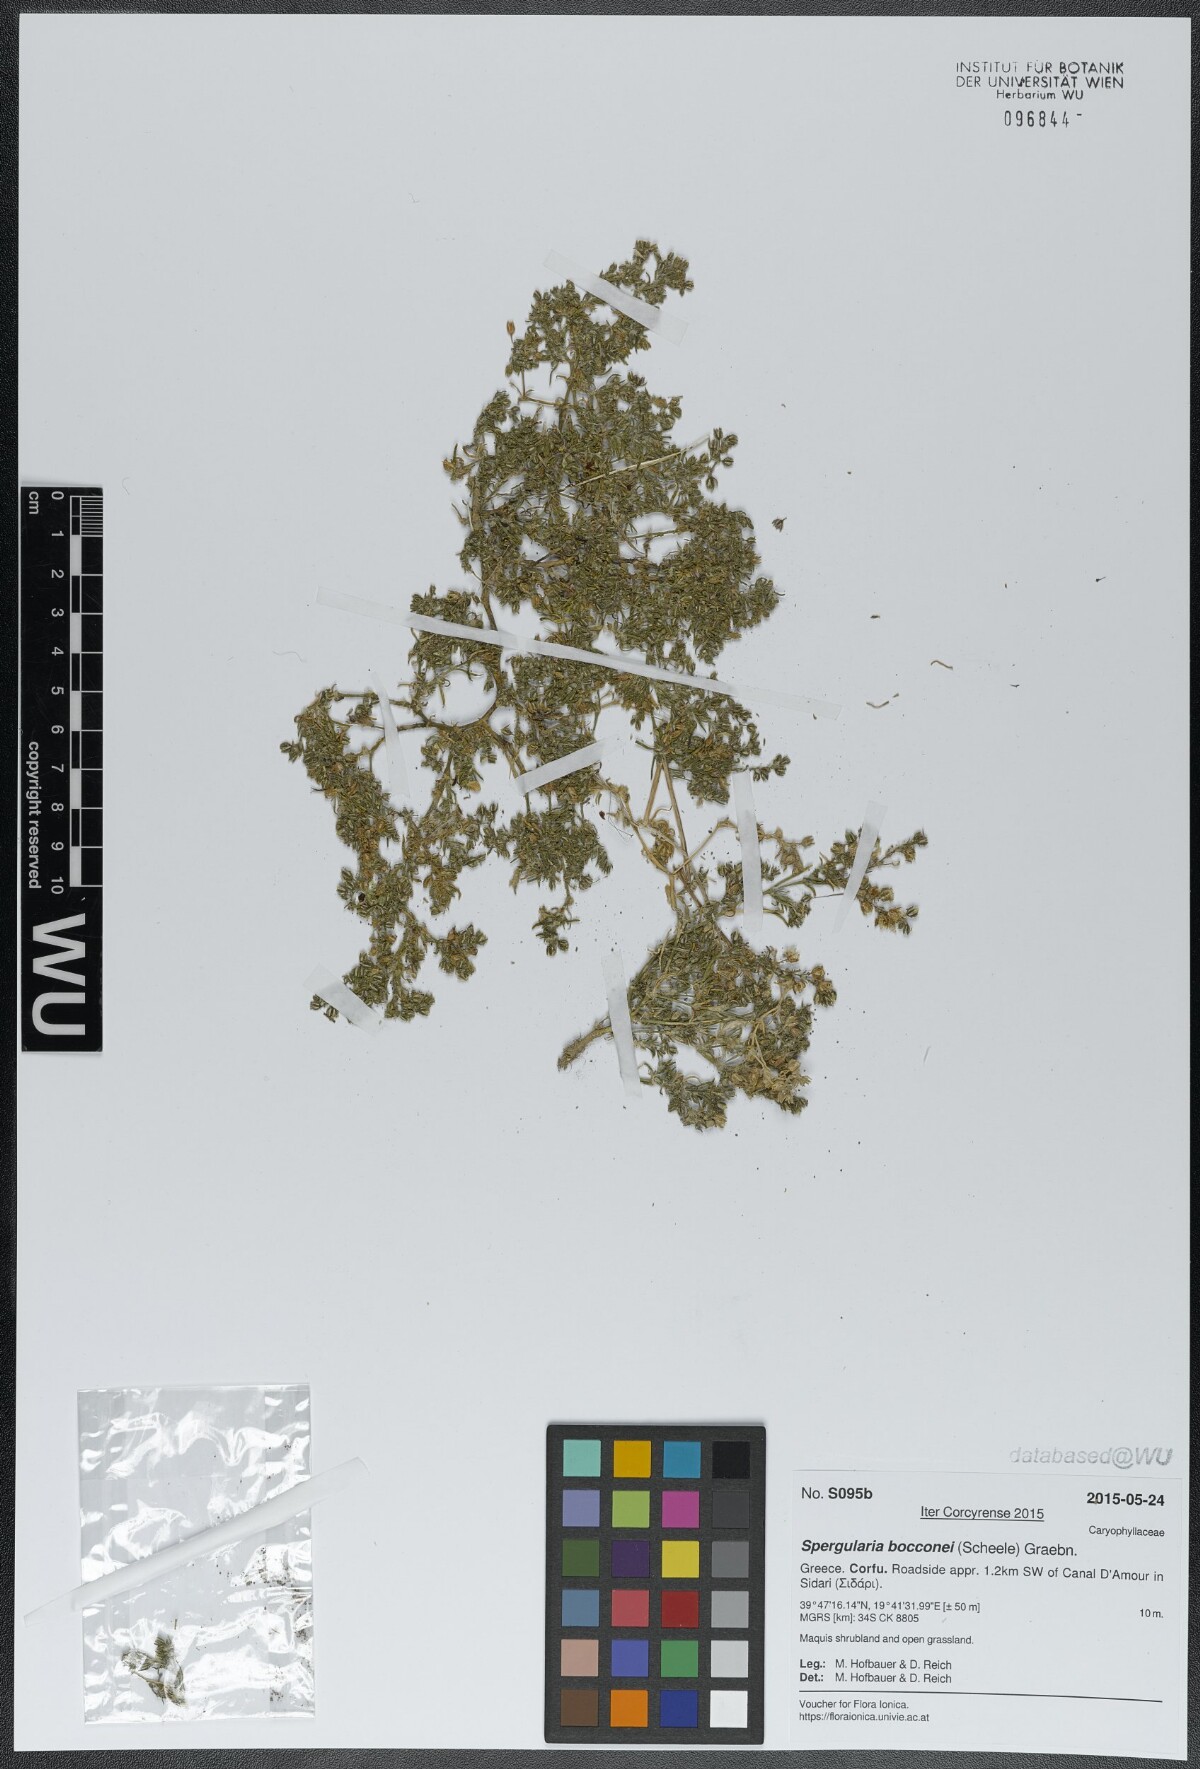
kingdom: Plantae
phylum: Tracheophyta
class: Magnoliopsida
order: Caryophyllales
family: Caryophyllaceae
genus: Spergularia
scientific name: Spergularia bocconei
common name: Greek sea-spurrey
